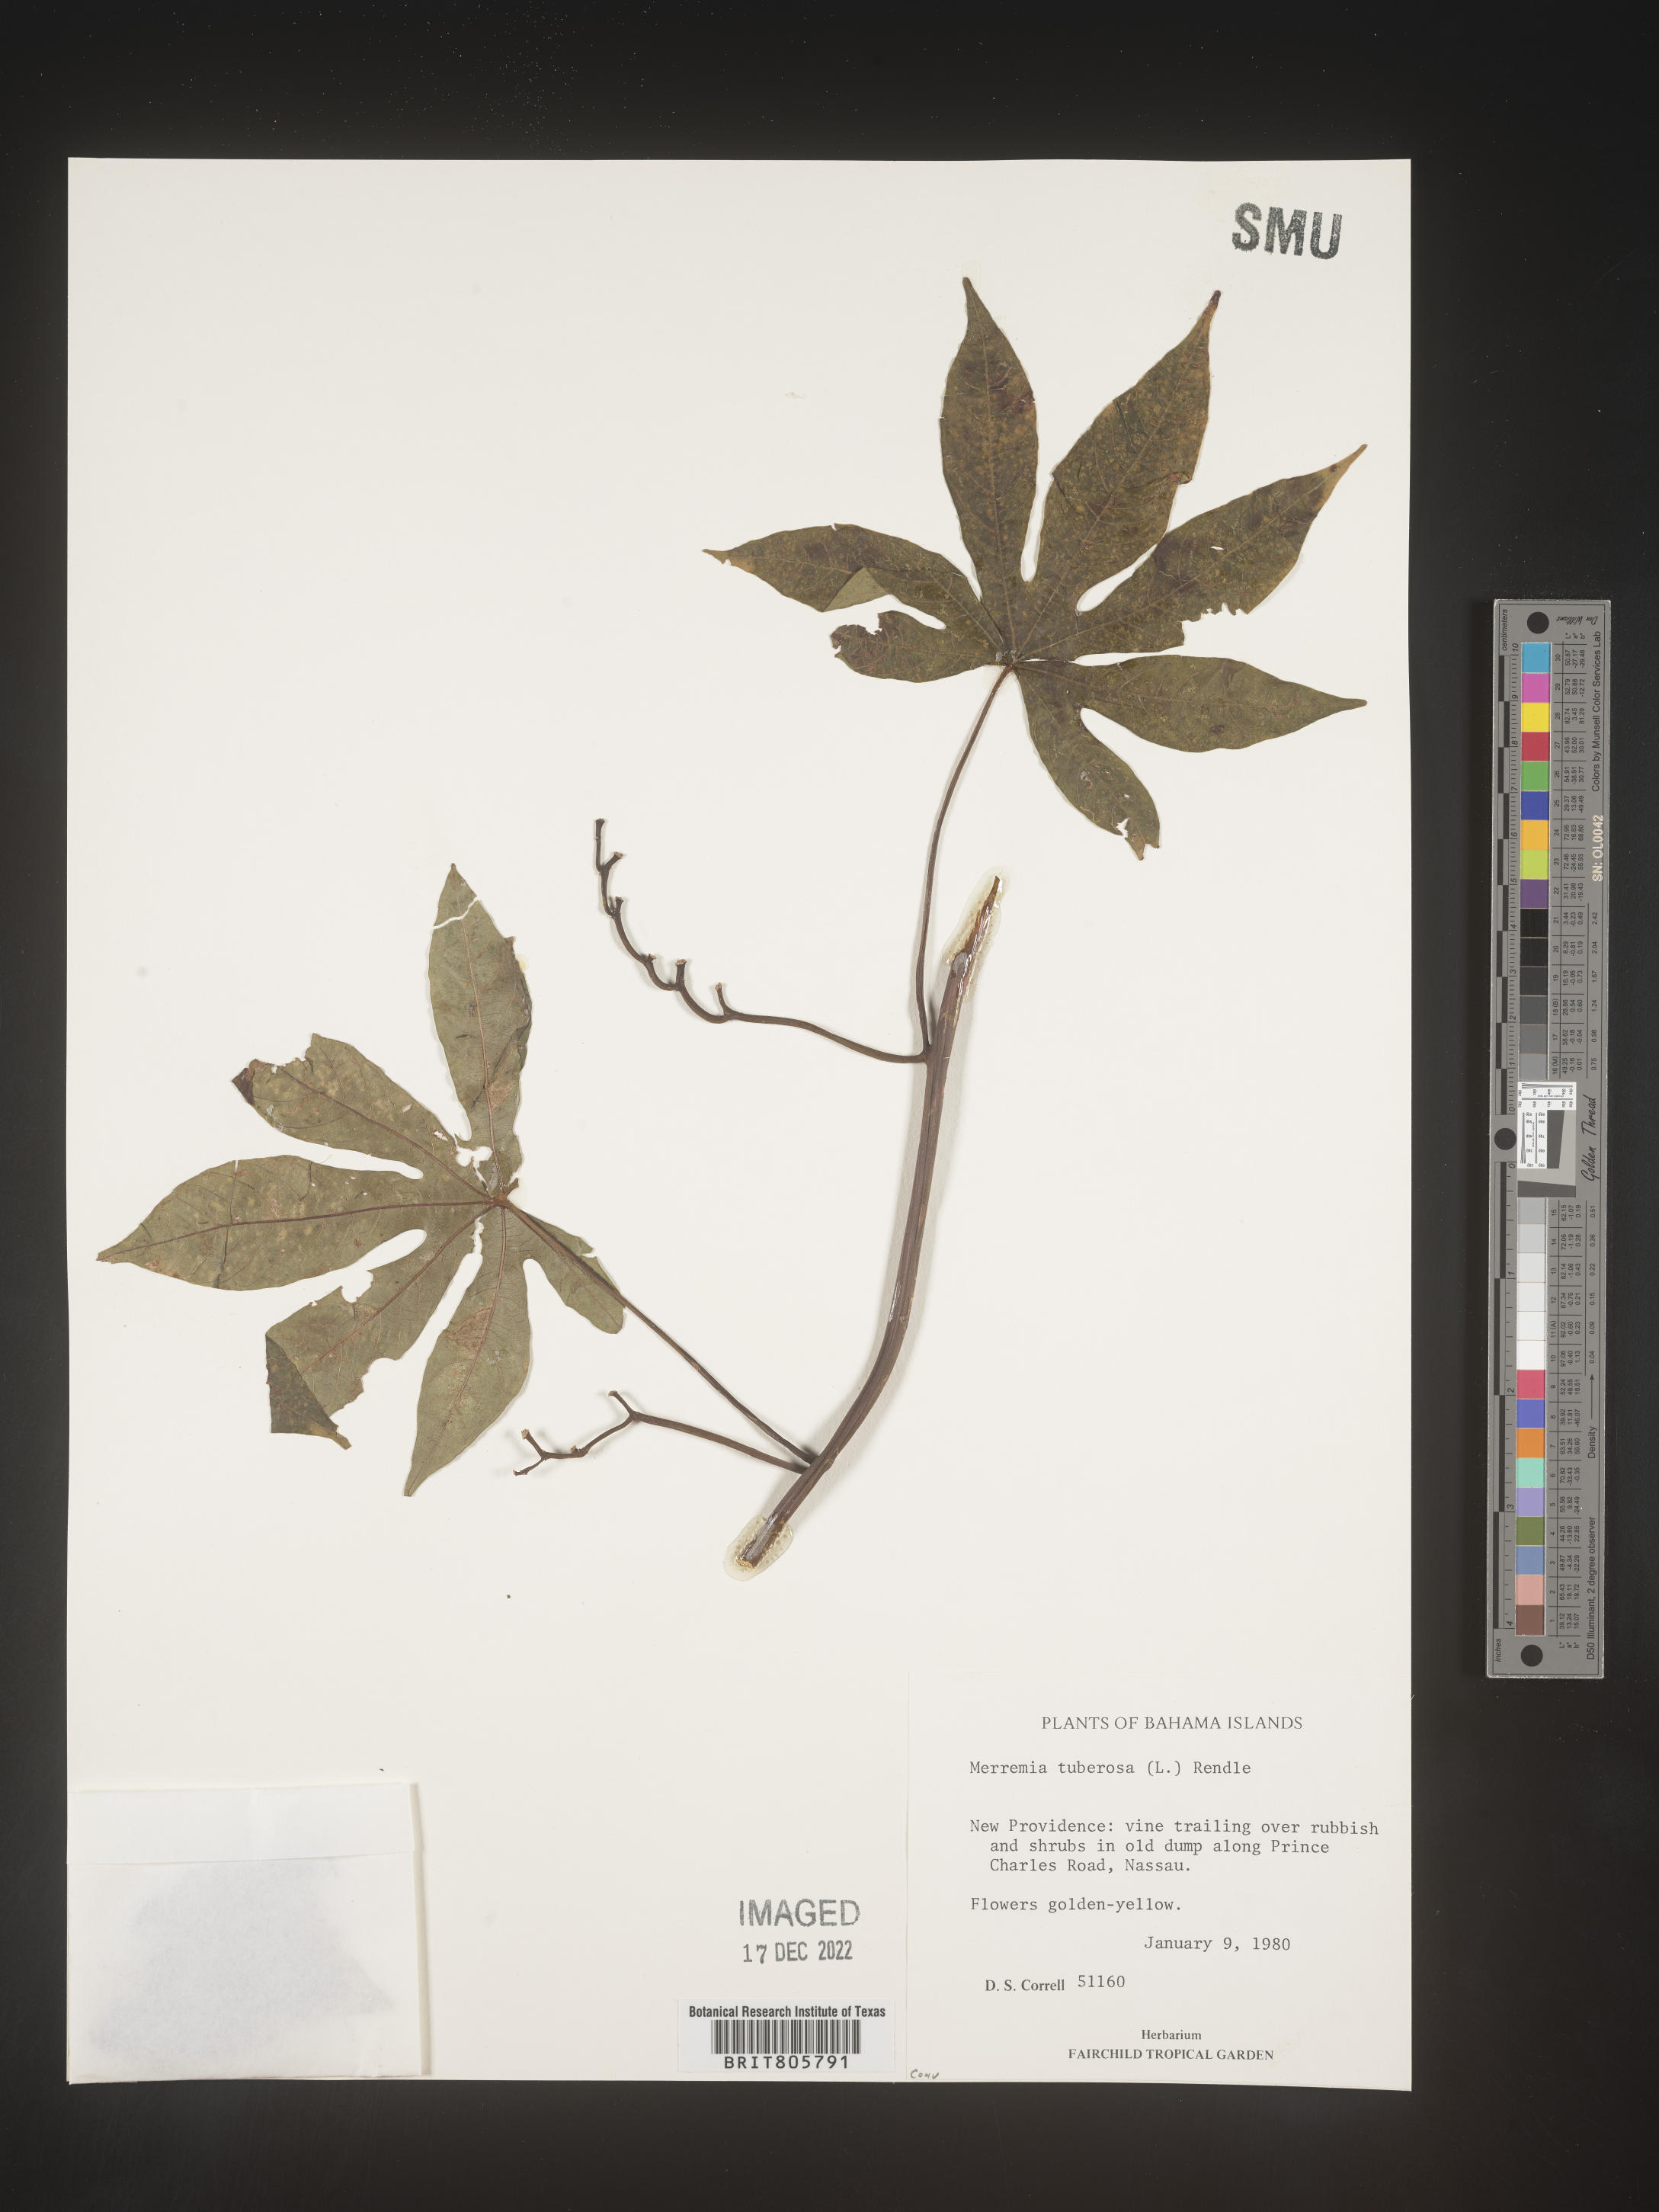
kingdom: Plantae
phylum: Tracheophyta
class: Magnoliopsida
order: Solanales
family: Convolvulaceae
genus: Merremia
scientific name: Merremia
